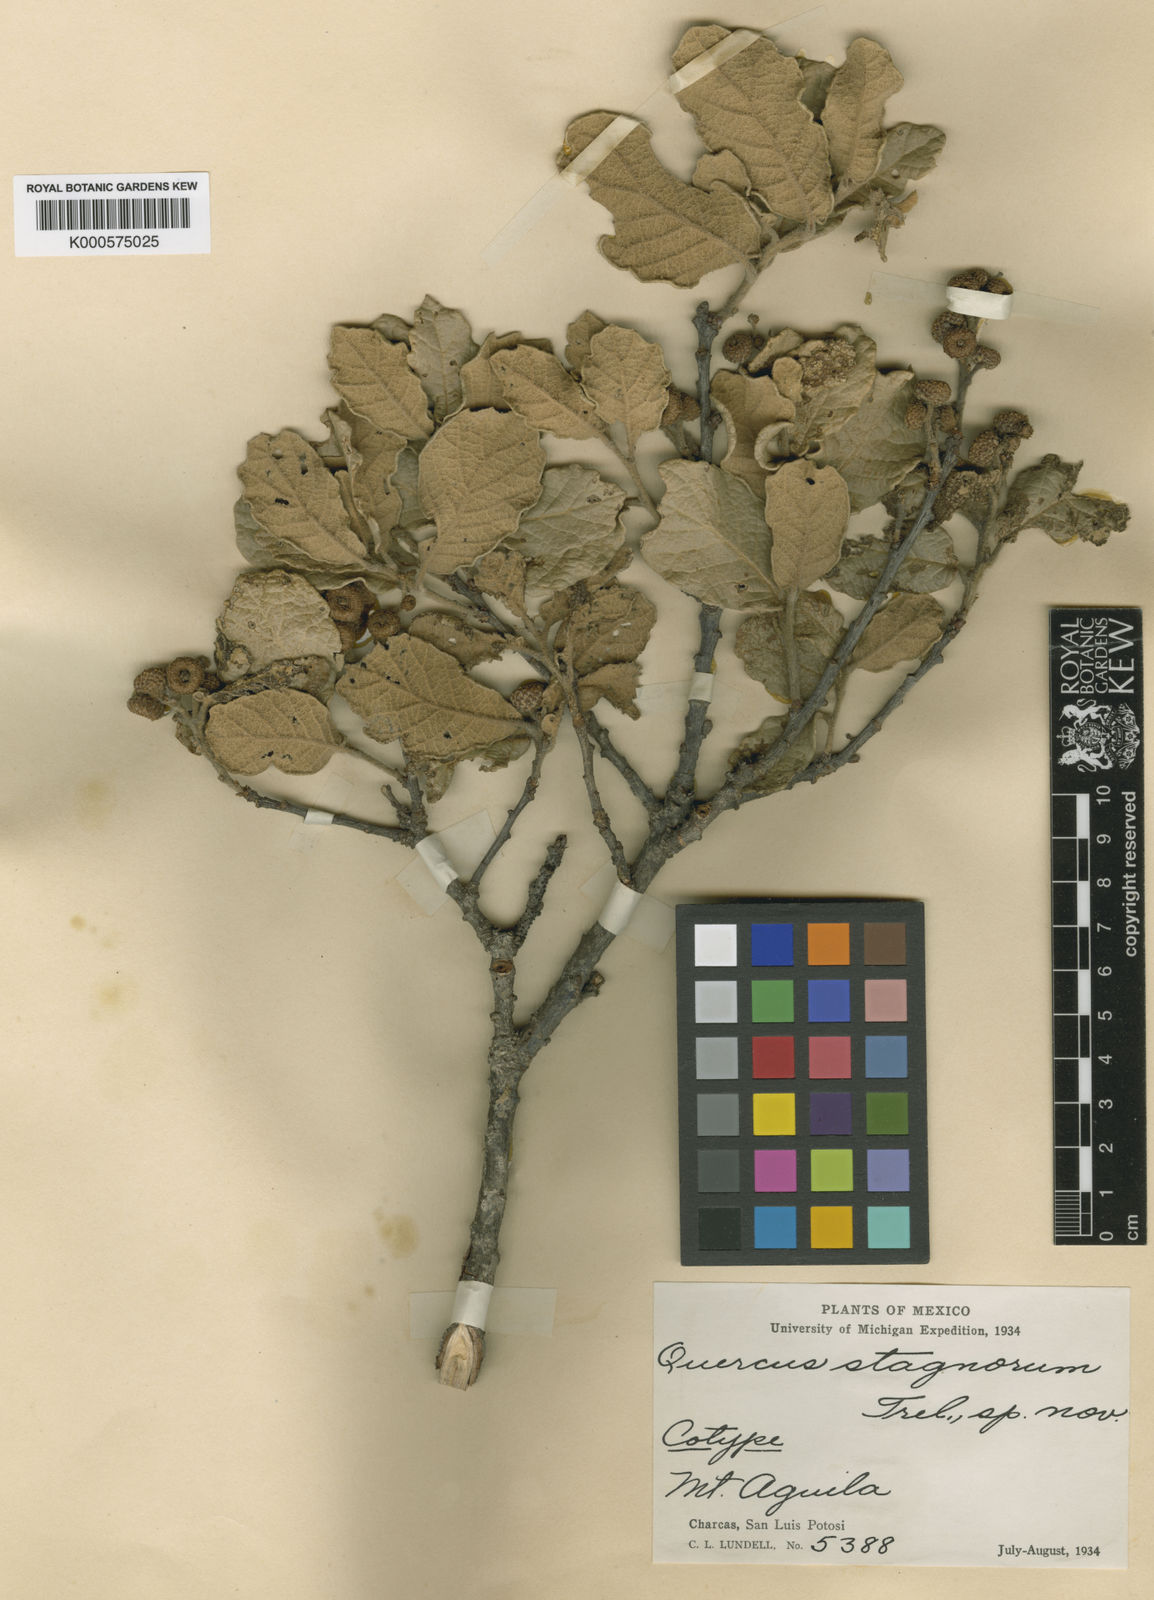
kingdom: Plantae
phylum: Tracheophyta
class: Magnoliopsida
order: Fagales
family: Fagaceae
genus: Quercus
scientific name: Quercus
